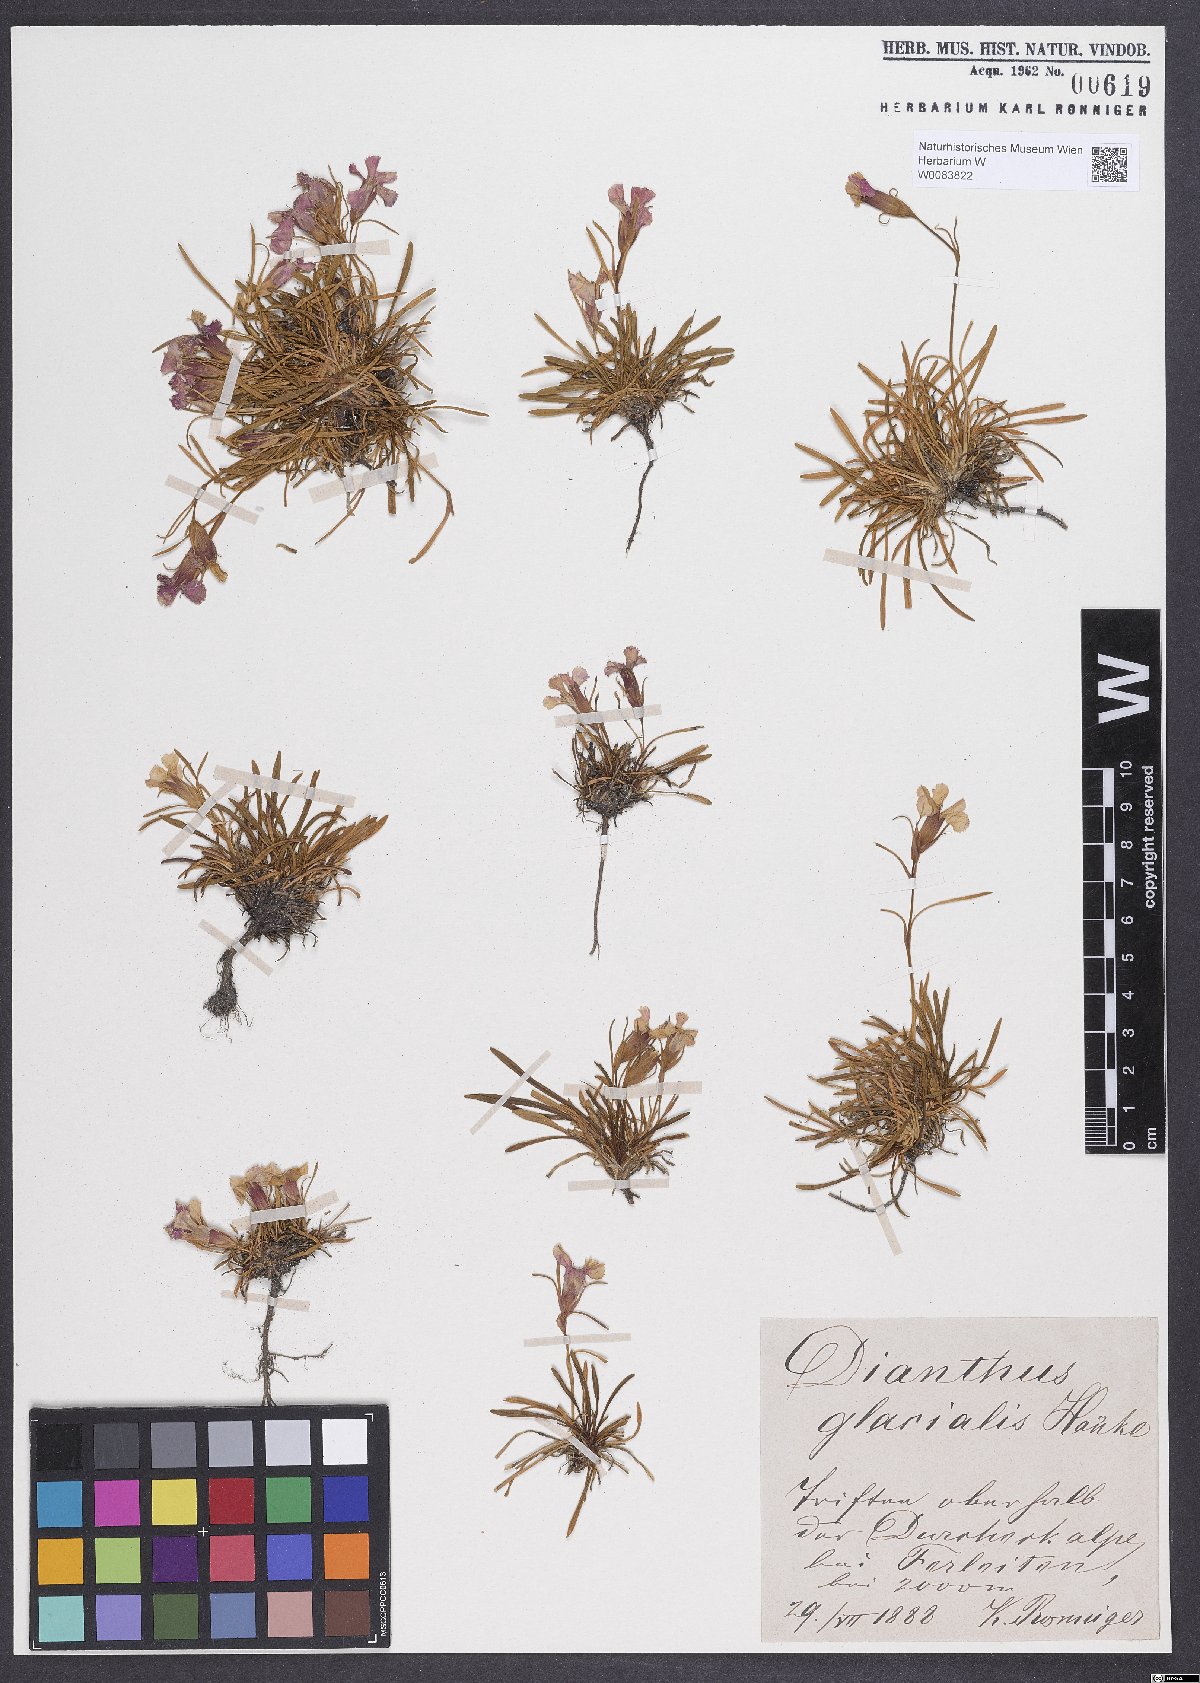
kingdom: Plantae
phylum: Tracheophyta
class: Magnoliopsida
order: Caryophyllales
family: Caryophyllaceae
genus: Dianthus
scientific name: Dianthus glacialis
